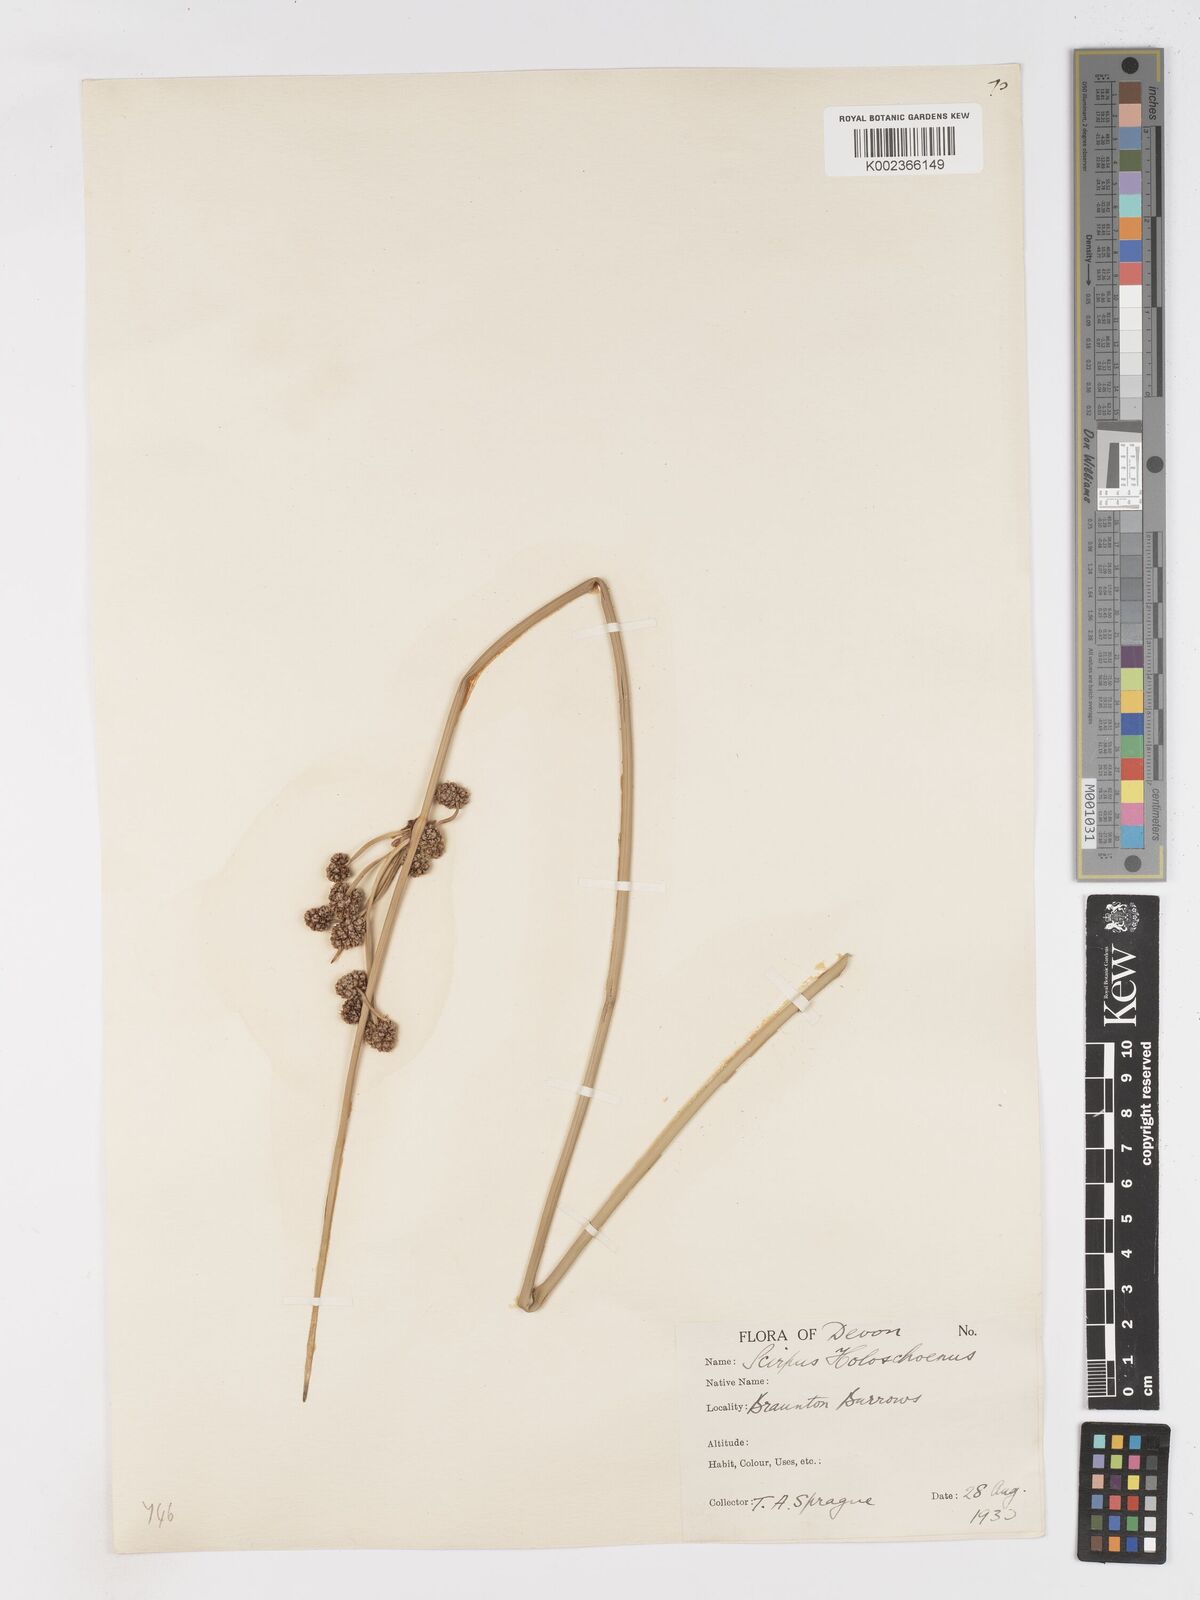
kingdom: Plantae
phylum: Tracheophyta
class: Liliopsida
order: Poales
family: Cyperaceae
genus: Scirpoides
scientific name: Scirpoides holoschoenus
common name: Round-headed club-rush
